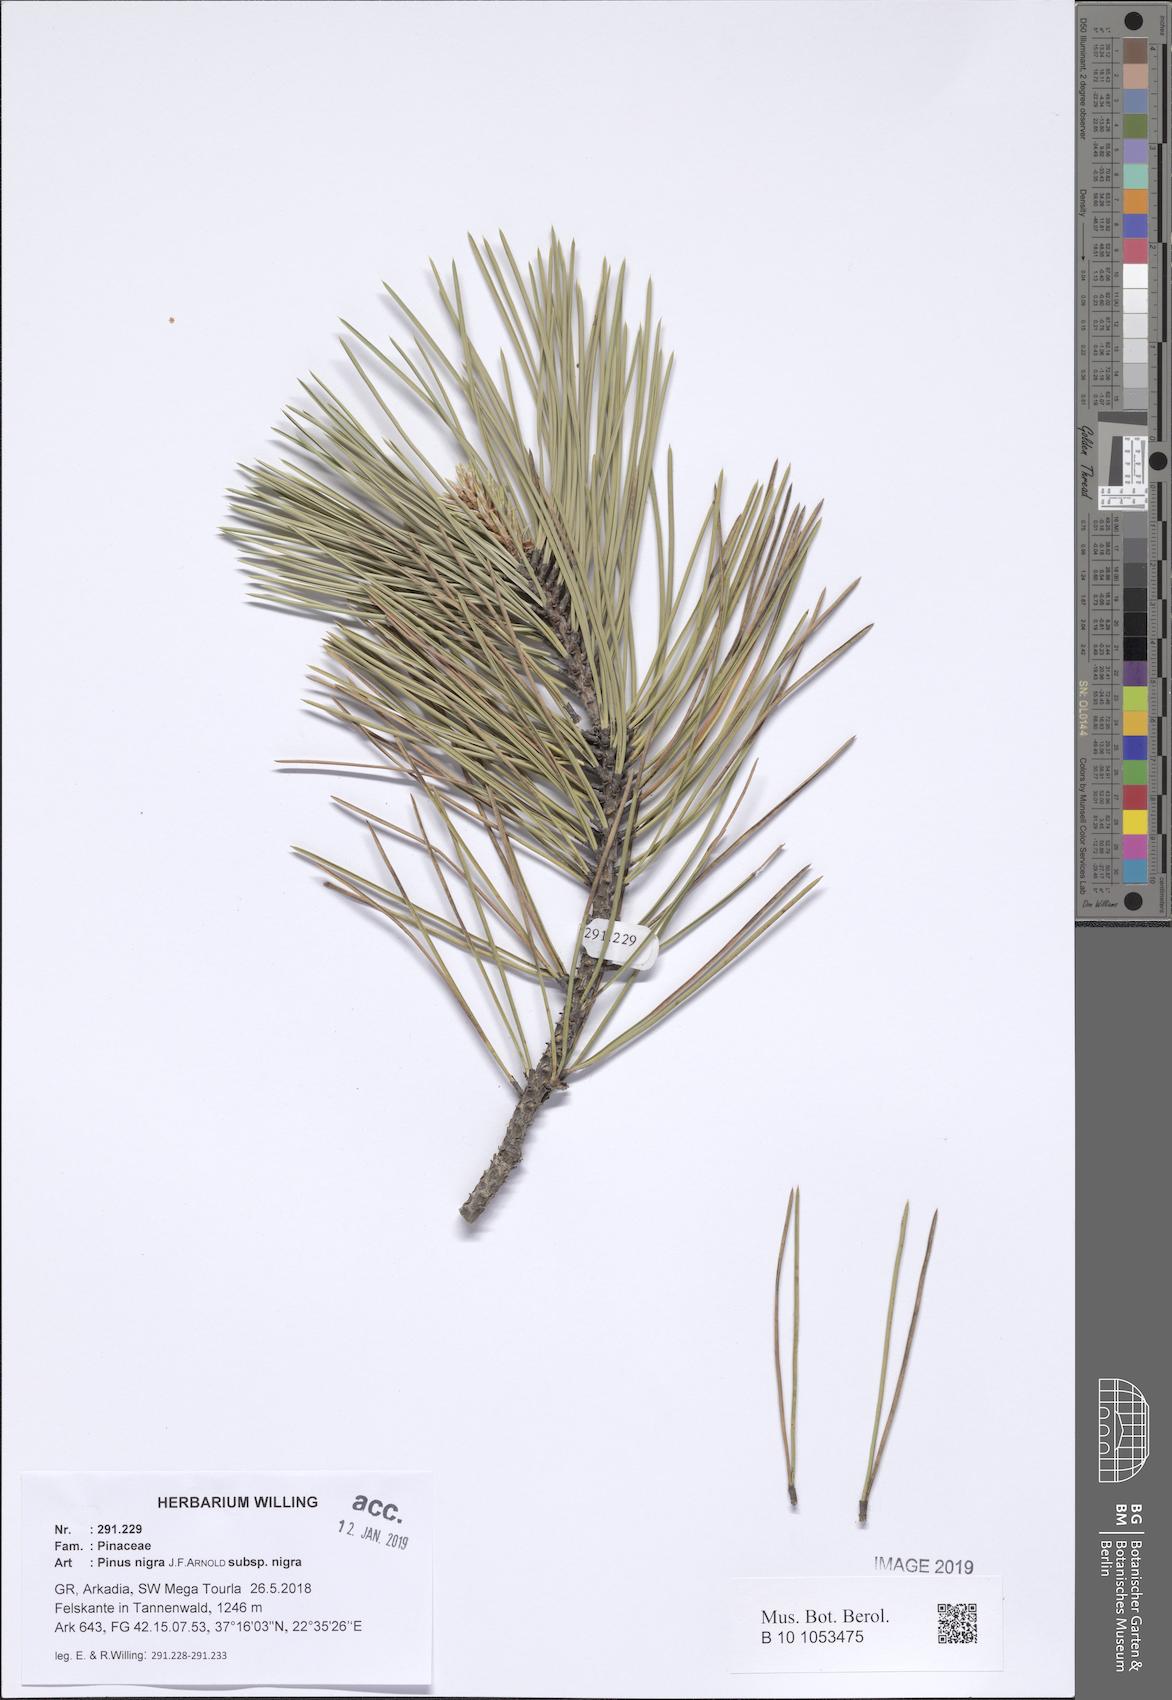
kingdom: Plantae
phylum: Tracheophyta
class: Pinopsida
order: Pinales
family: Pinaceae
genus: Pinus
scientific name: Pinus nigra
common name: Austrian pine
